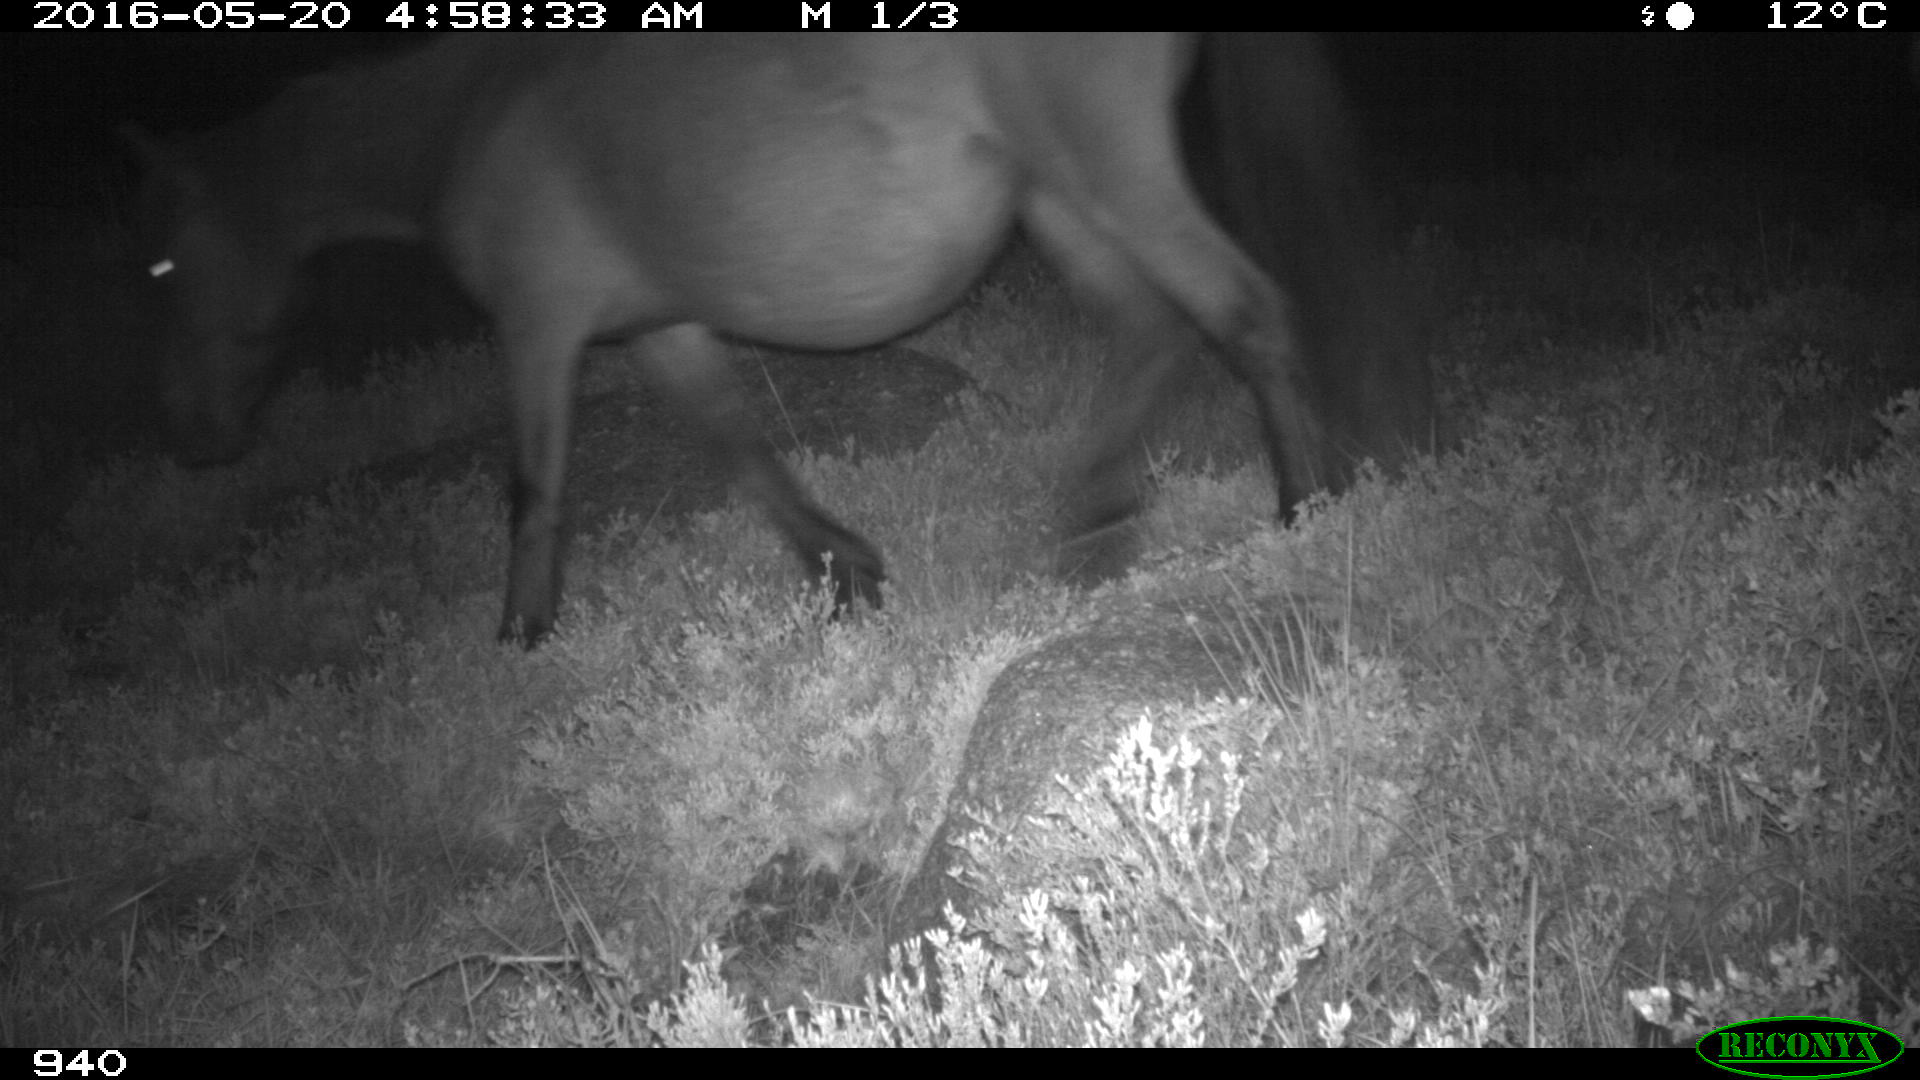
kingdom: Animalia
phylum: Chordata
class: Mammalia
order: Perissodactyla
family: Equidae
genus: Equus
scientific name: Equus caballus
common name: Horse
